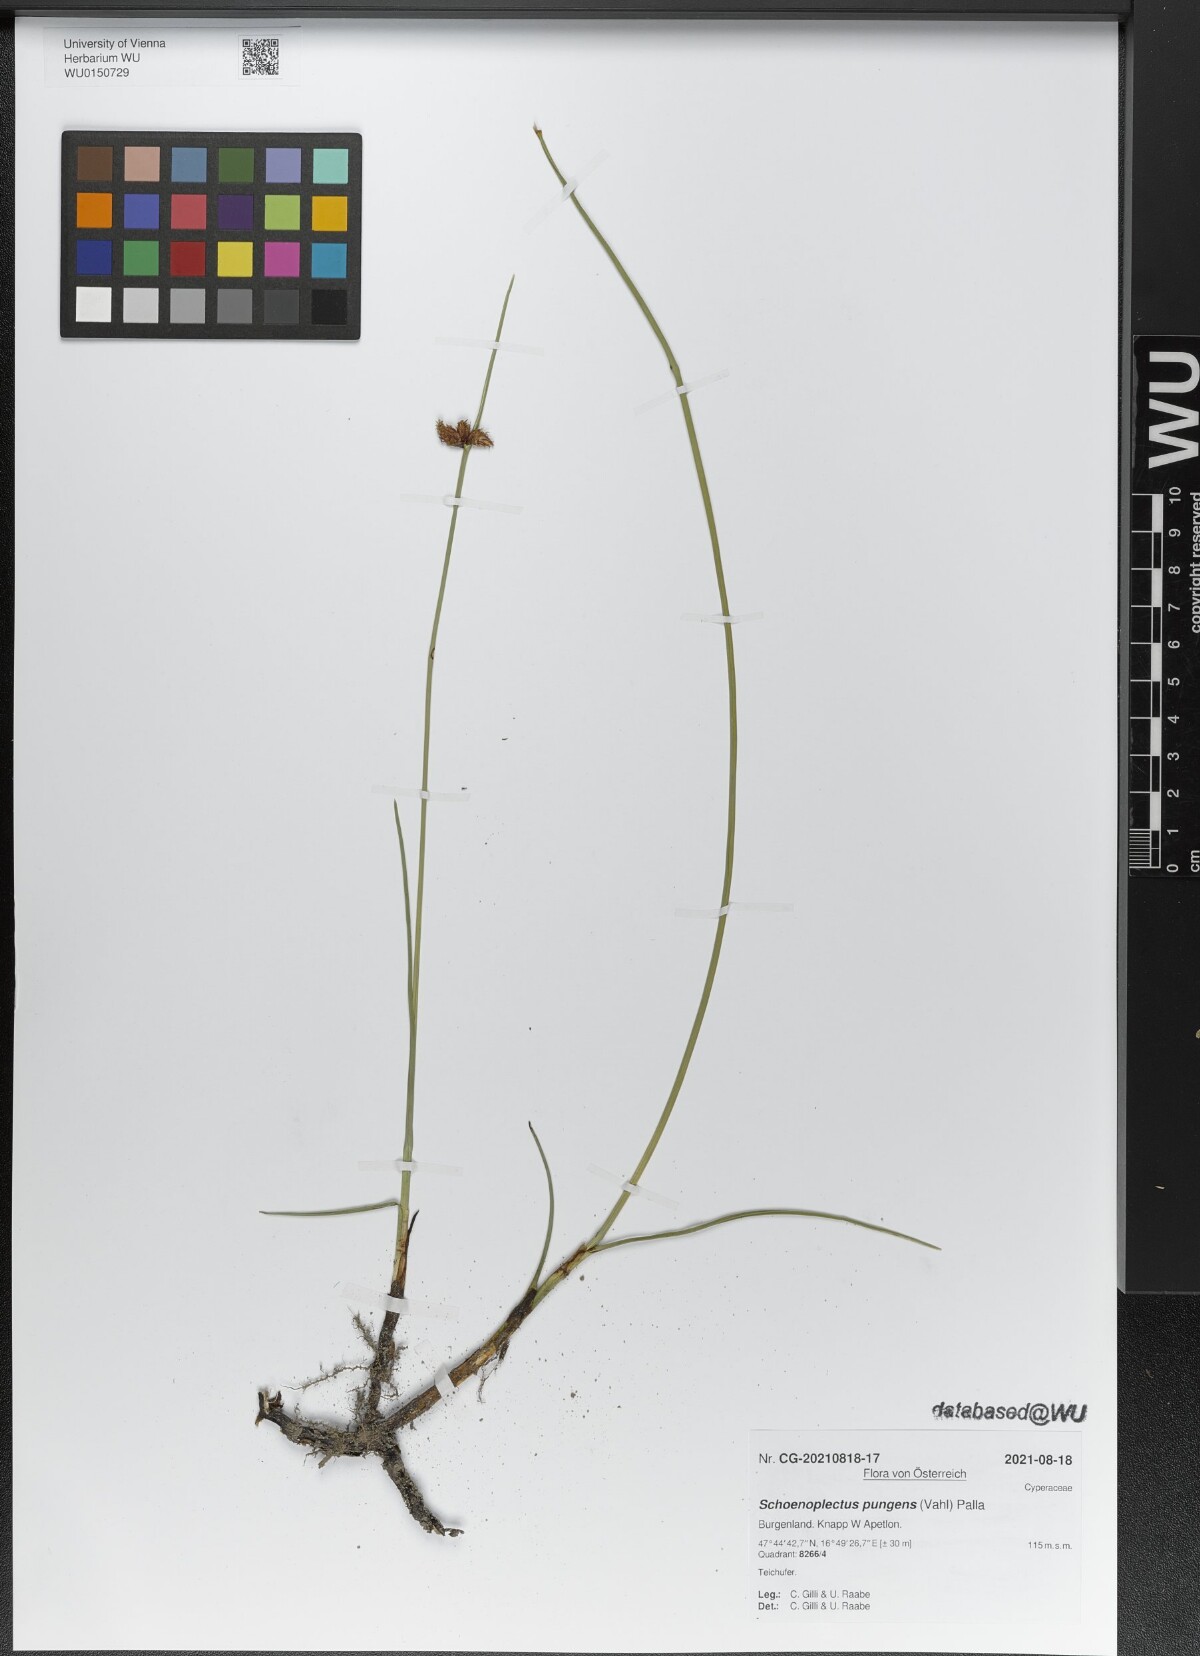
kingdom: Plantae
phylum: Tracheophyta
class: Liliopsida
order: Poales
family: Cyperaceae
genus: Schoenoplectus
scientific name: Schoenoplectus pungens
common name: Sharp club-rush
